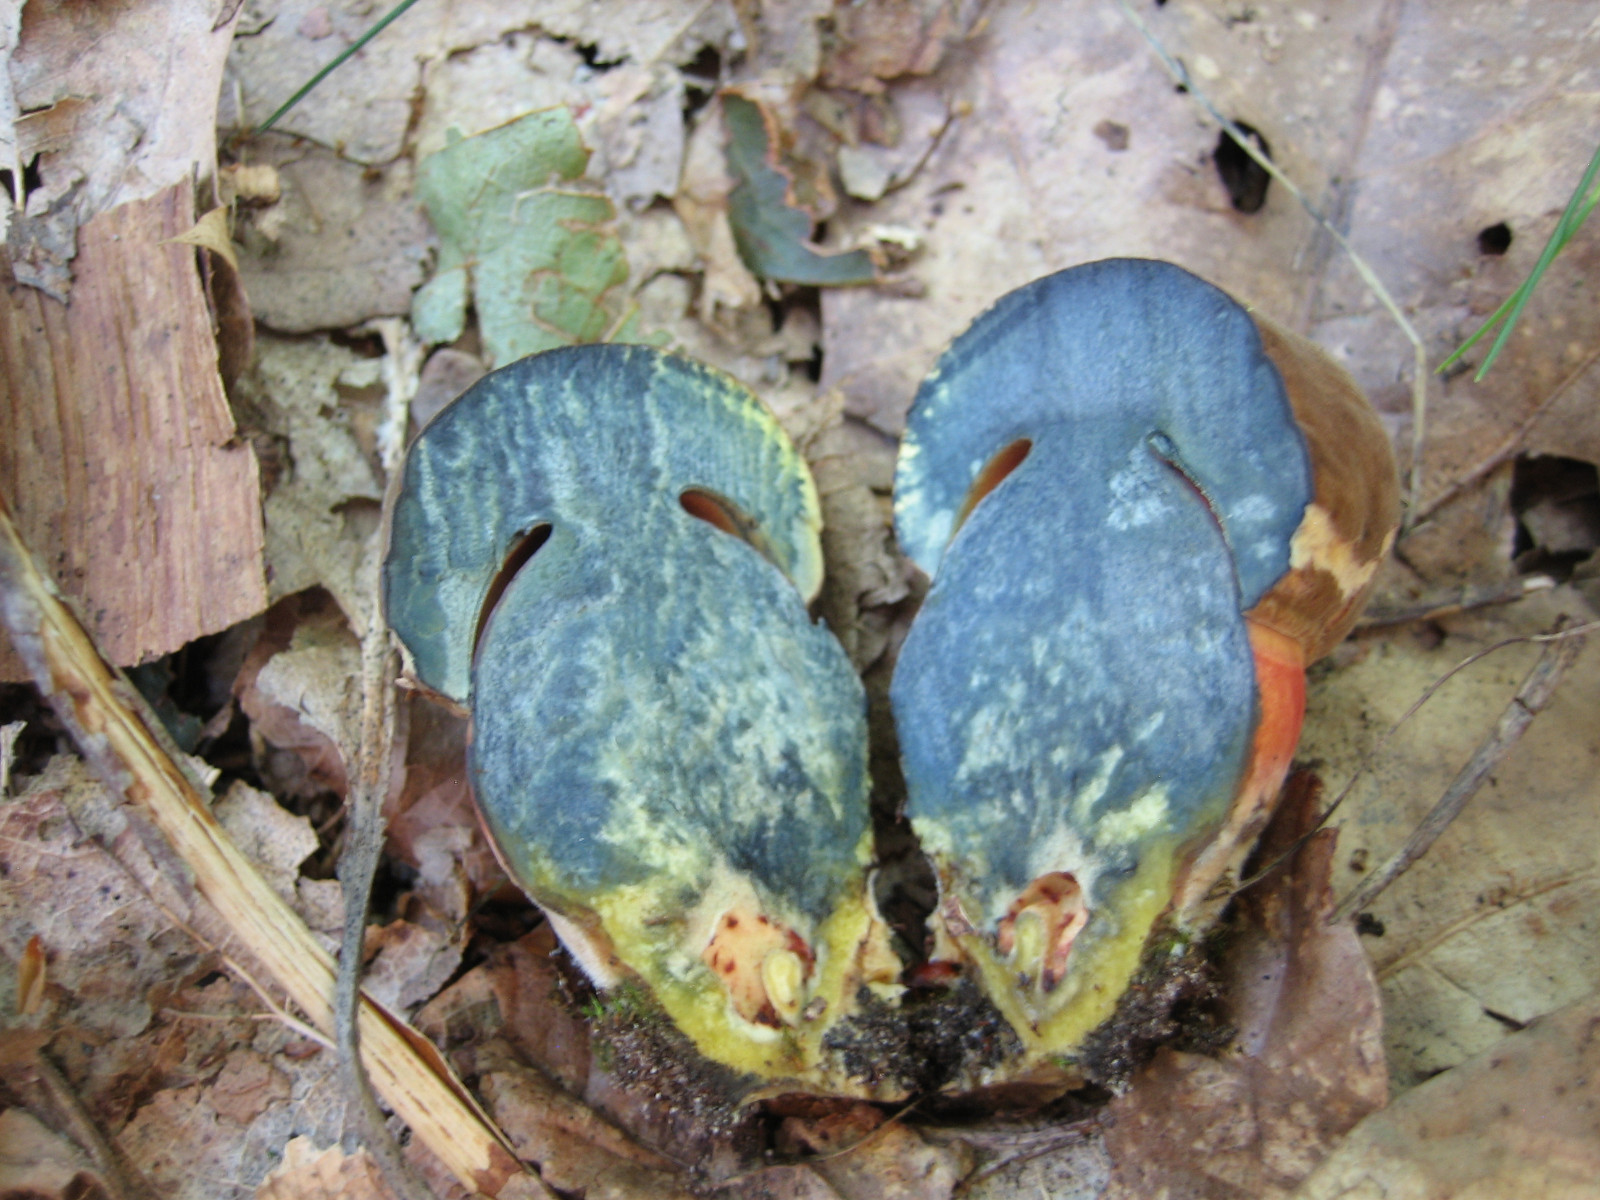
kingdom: Fungi
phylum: Basidiomycota
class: Agaricomycetes
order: Boletales
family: Boletaceae
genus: Neoboletus
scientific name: Neoboletus erythropus
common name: punktstokket indigorørhat
